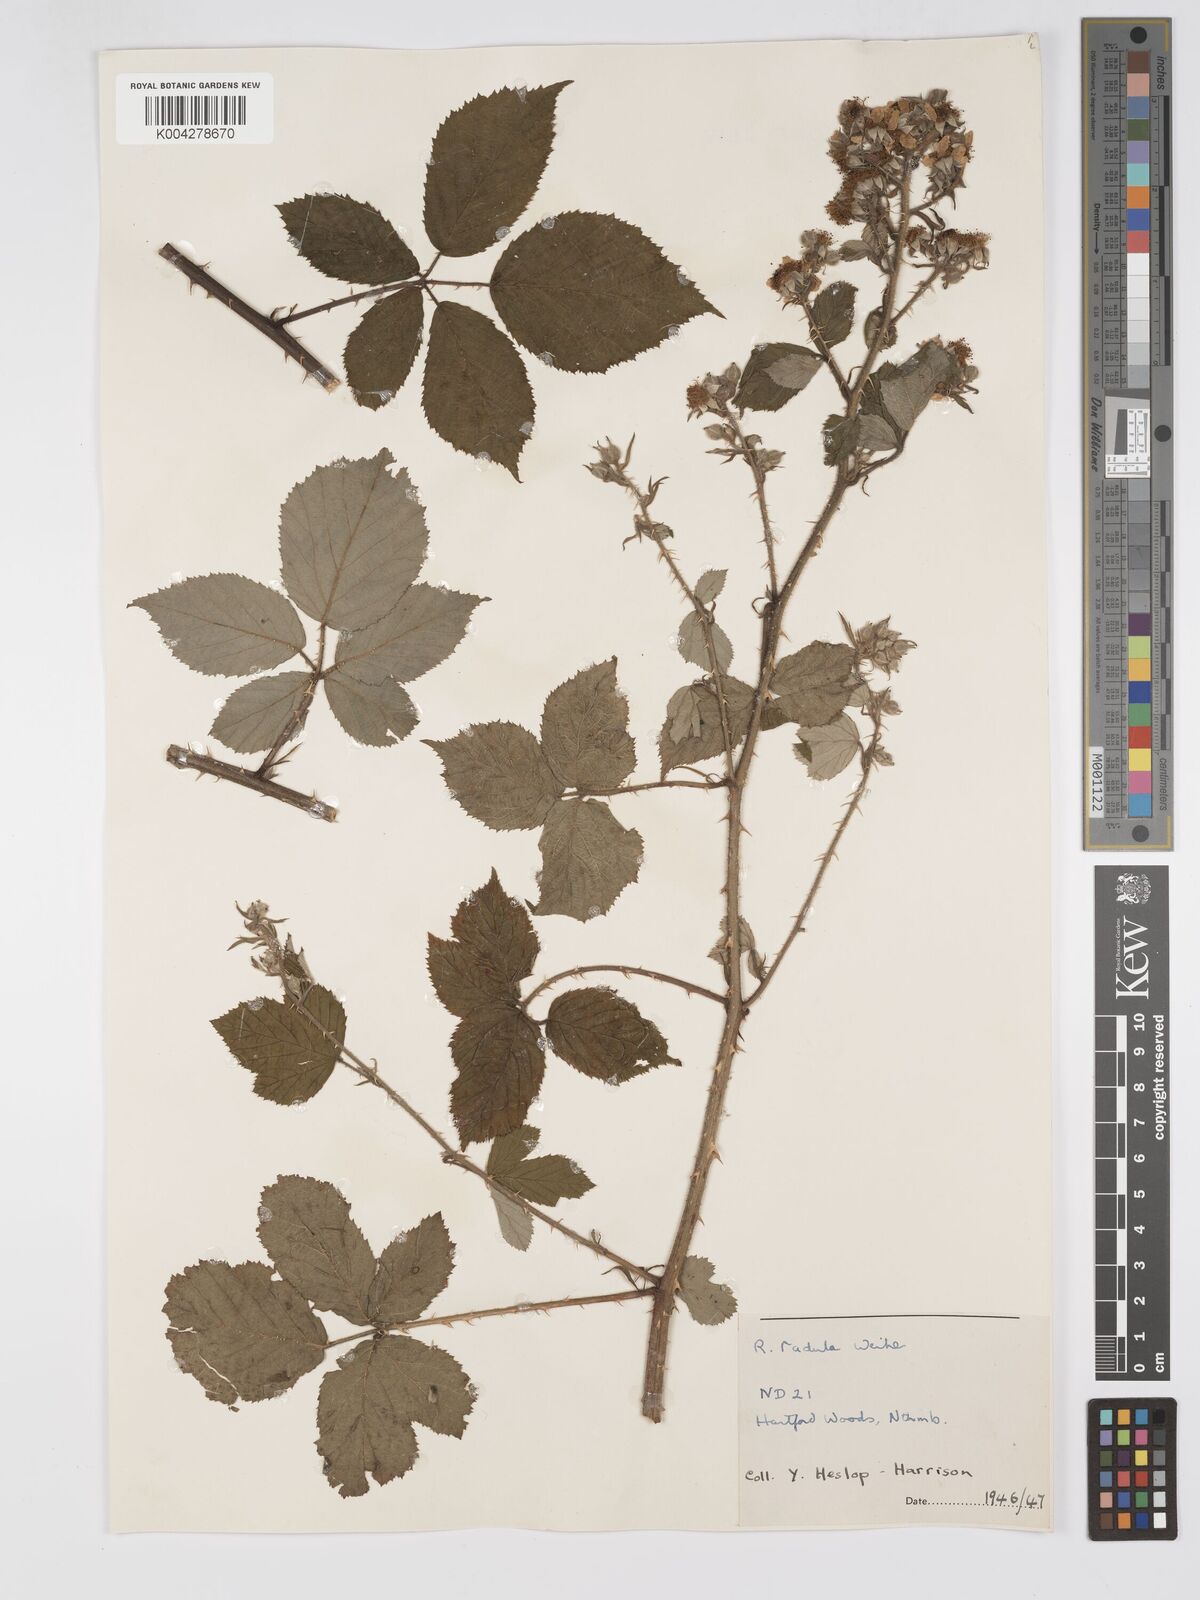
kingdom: Plantae
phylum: Tracheophyta
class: Magnoliopsida
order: Rosales
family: Rosaceae
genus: Rubus
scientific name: Rubus radula
